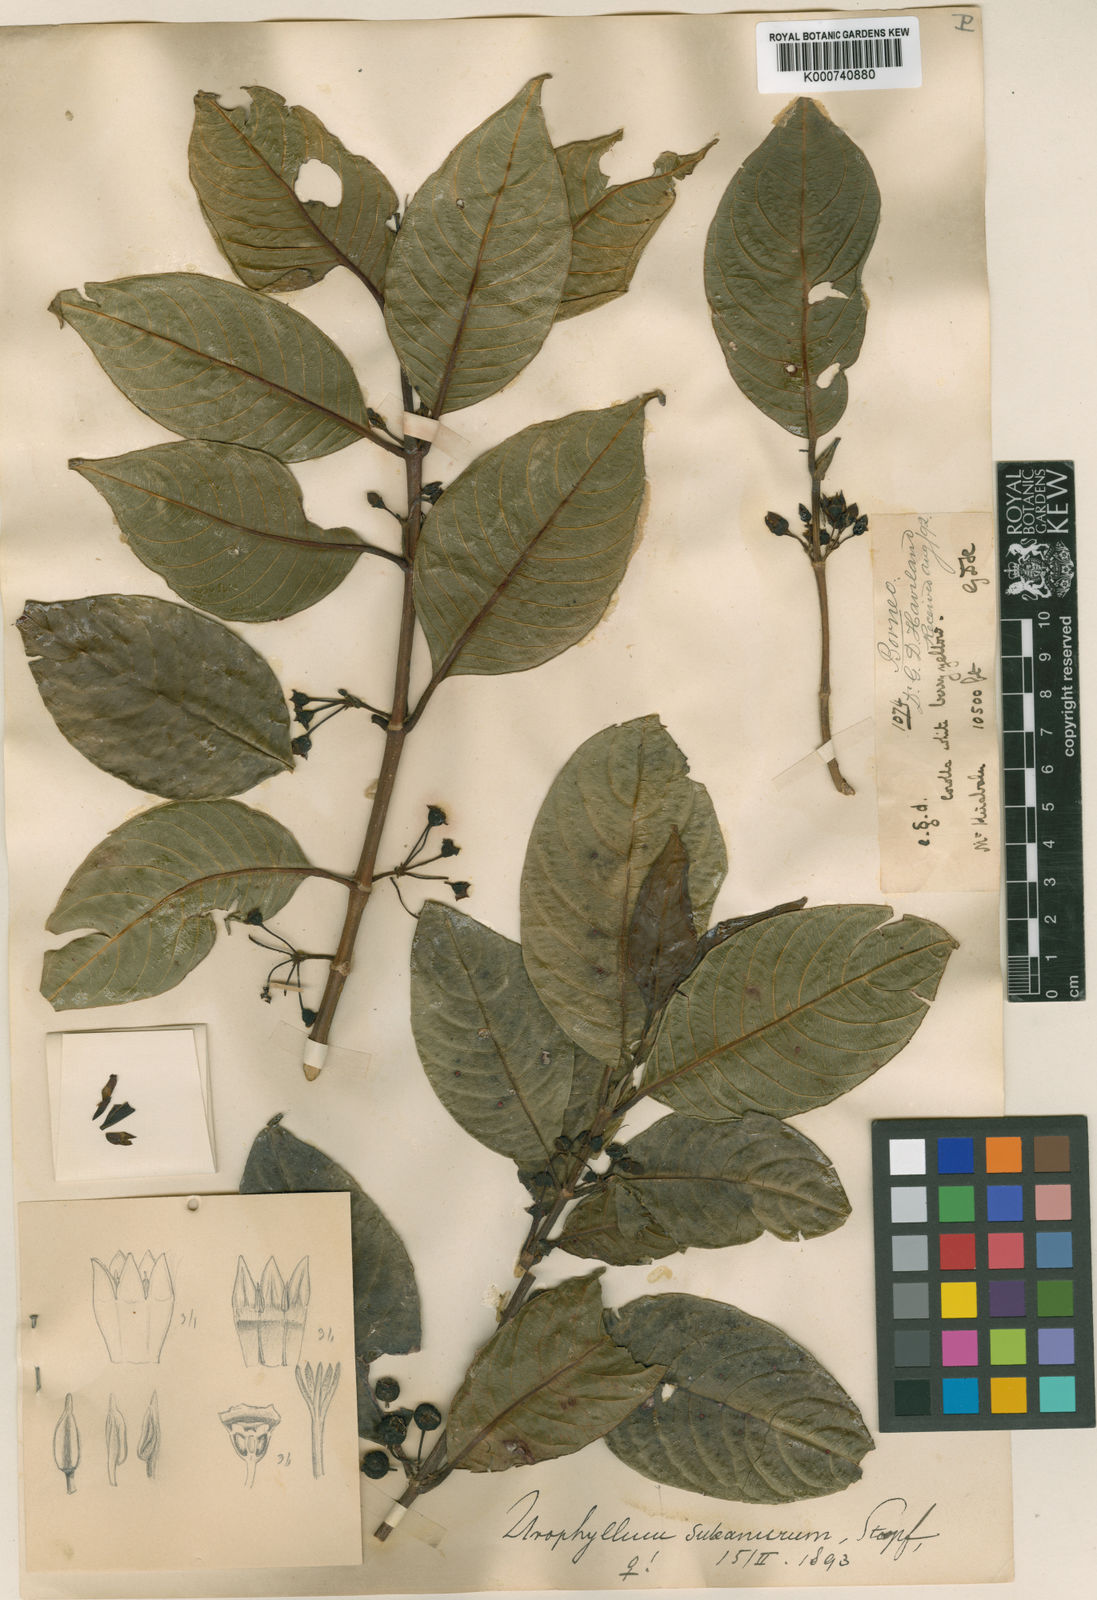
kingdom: Plantae
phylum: Tracheophyta
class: Magnoliopsida
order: Gentianales
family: Rubiaceae
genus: Urophyllum
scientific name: Urophyllum subanurum
